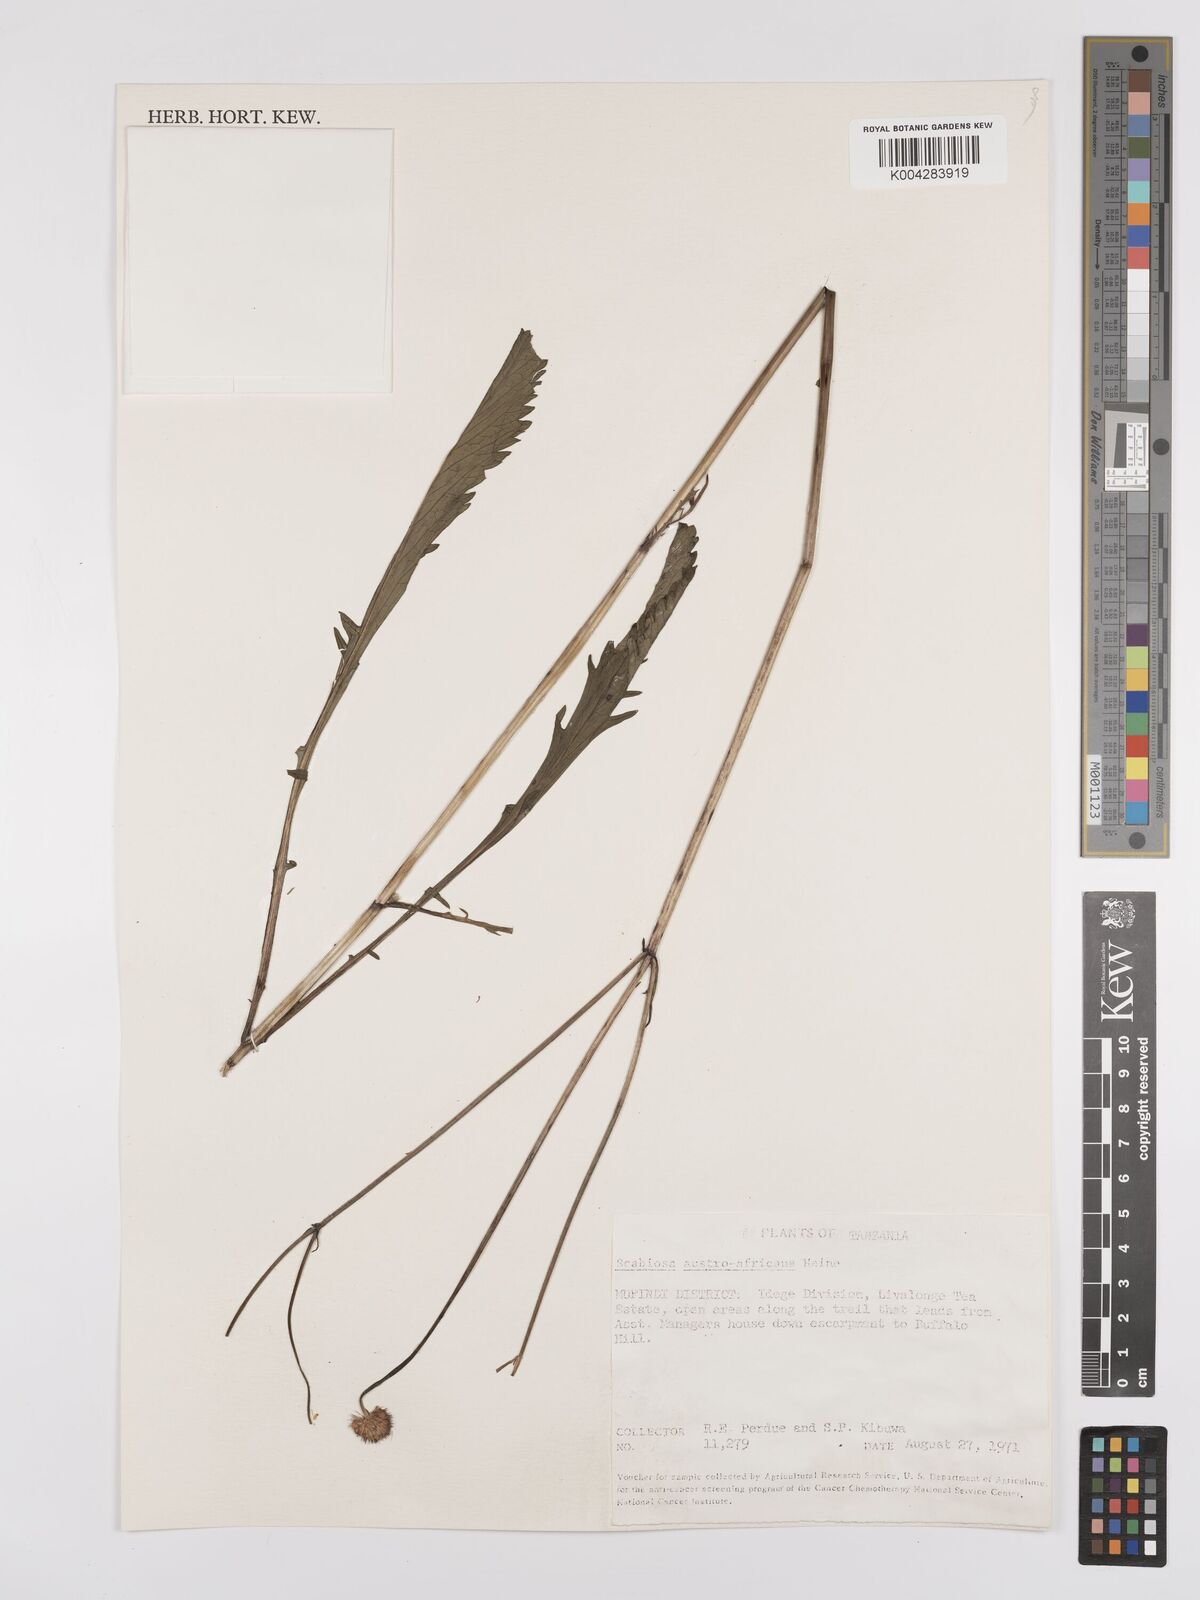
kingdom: Plantae
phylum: Tracheophyta
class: Magnoliopsida
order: Dipsacales
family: Caprifoliaceae
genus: Scabiosa
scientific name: Scabiosa austroafricana
